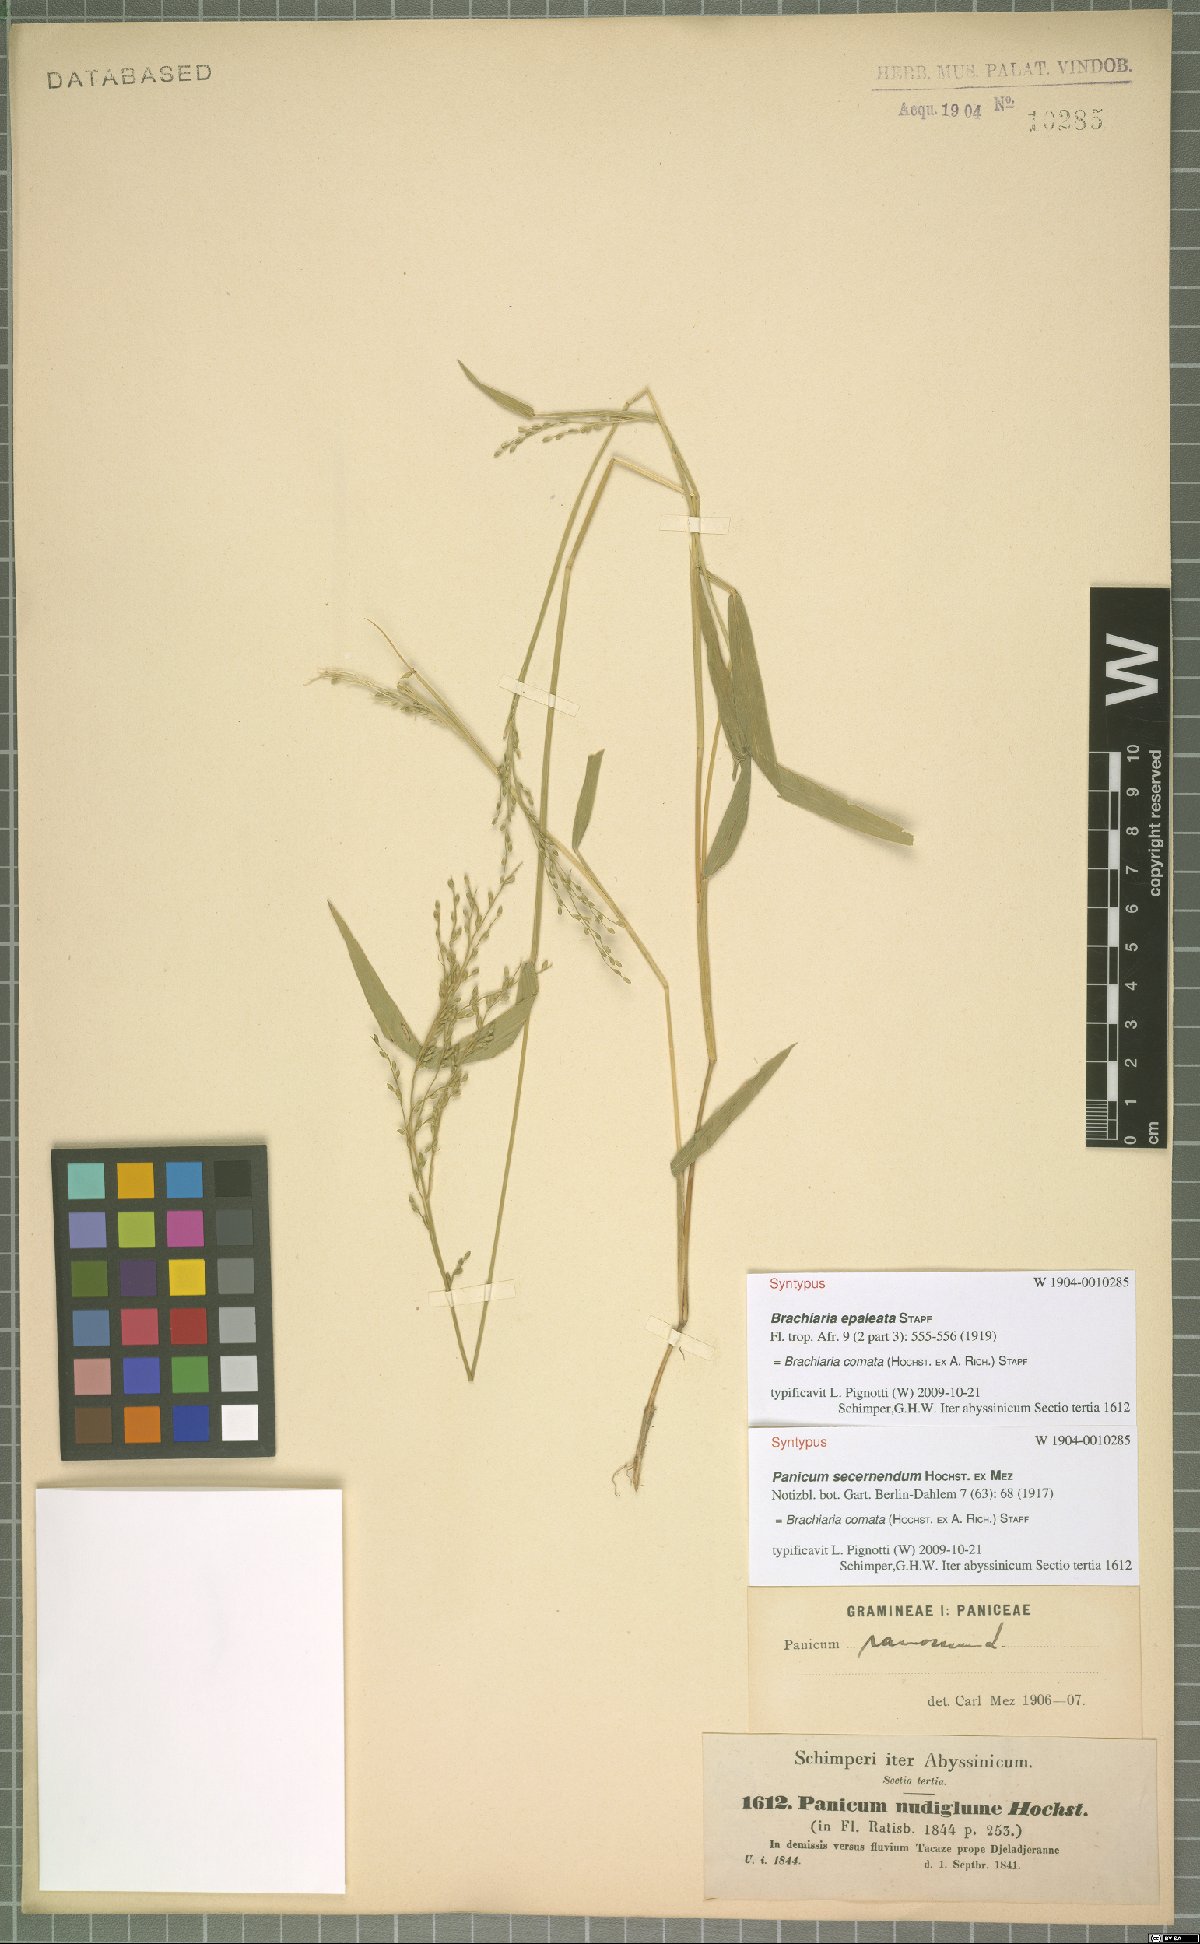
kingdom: Plantae
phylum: Tracheophyta
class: Liliopsida
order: Poales
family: Poaceae
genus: Urochloa
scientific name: Urochloa comata
